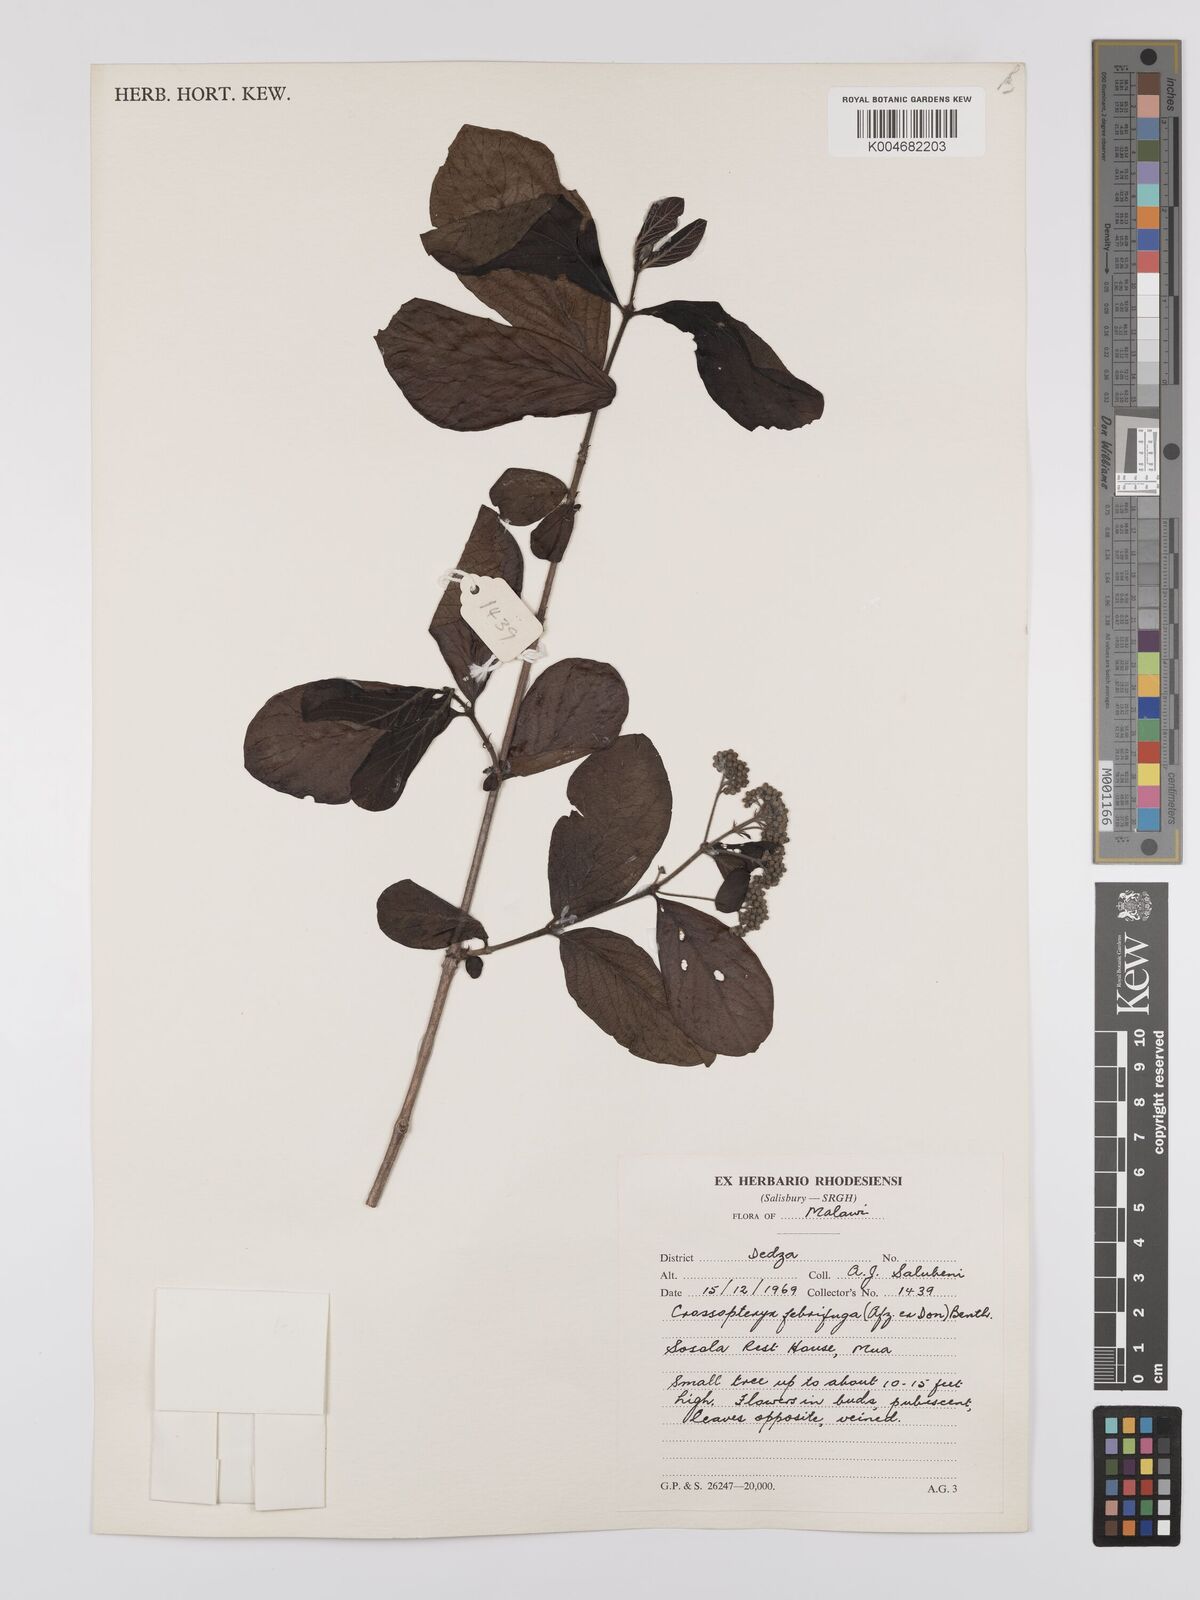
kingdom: Plantae
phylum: Tracheophyta
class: Magnoliopsida
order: Gentianales
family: Rubiaceae
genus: Crossopteryx
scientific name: Crossopteryx febrifuga
